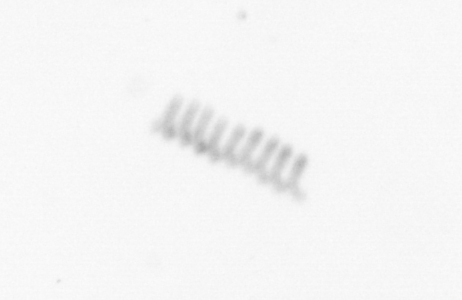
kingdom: Chromista
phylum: Ochrophyta
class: Bacillariophyceae
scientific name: Bacillariophyceae
